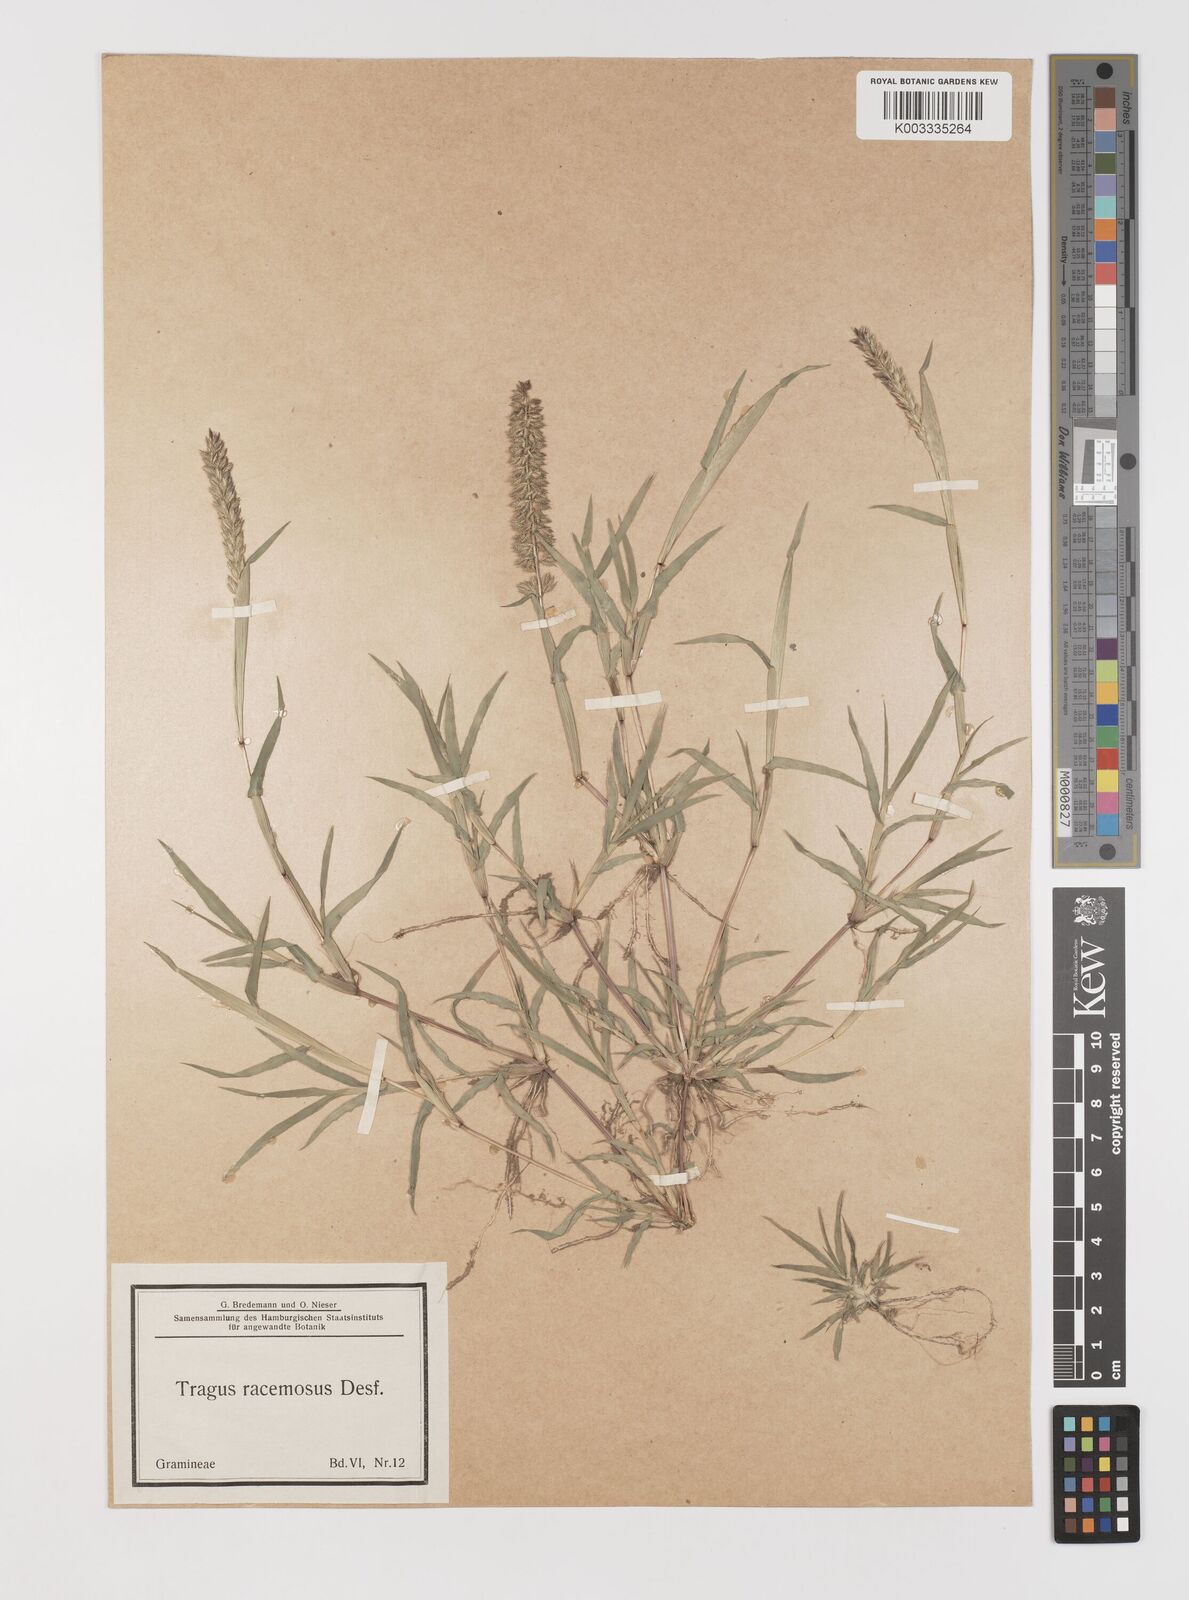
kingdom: Plantae
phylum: Tracheophyta
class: Liliopsida
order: Poales
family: Poaceae
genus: Tragus
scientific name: Tragus racemosus
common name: European bur-grass
